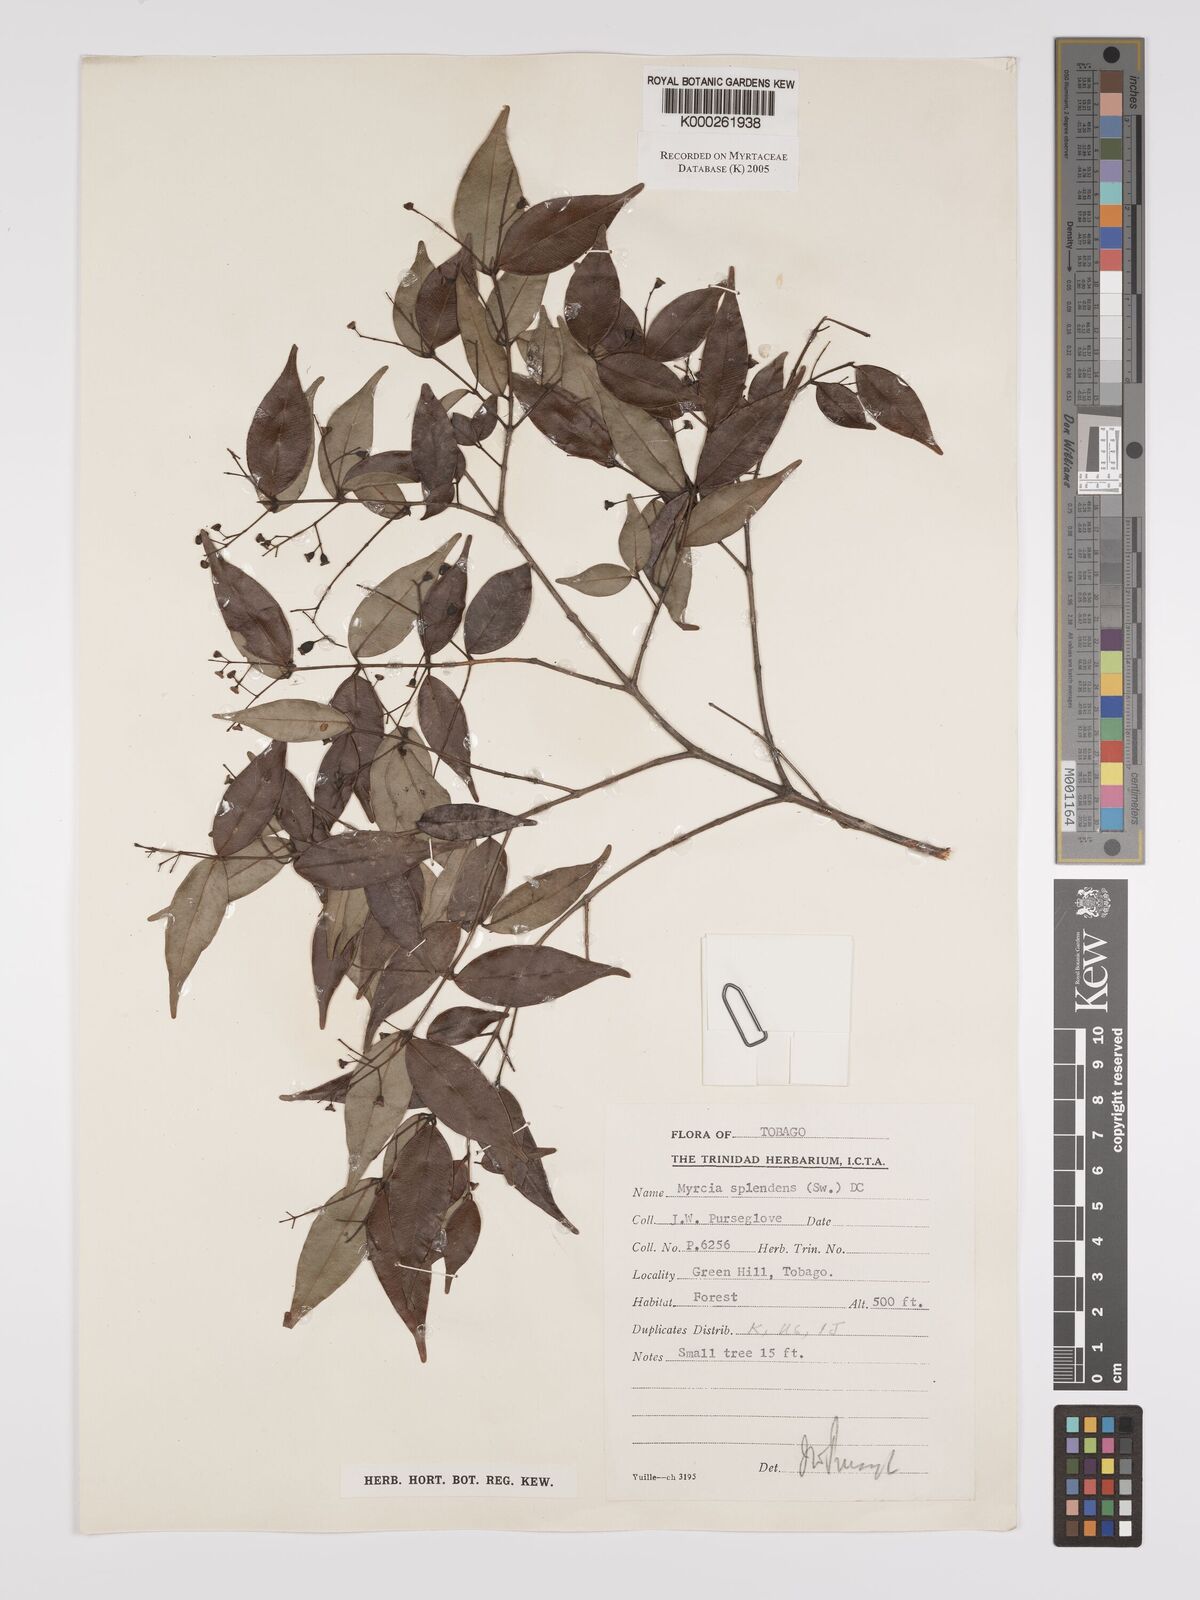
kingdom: Plantae
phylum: Tracheophyta
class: Magnoliopsida
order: Myrtales
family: Myrtaceae
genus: Myrcia
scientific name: Myrcia splendens
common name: Surinam cherry
